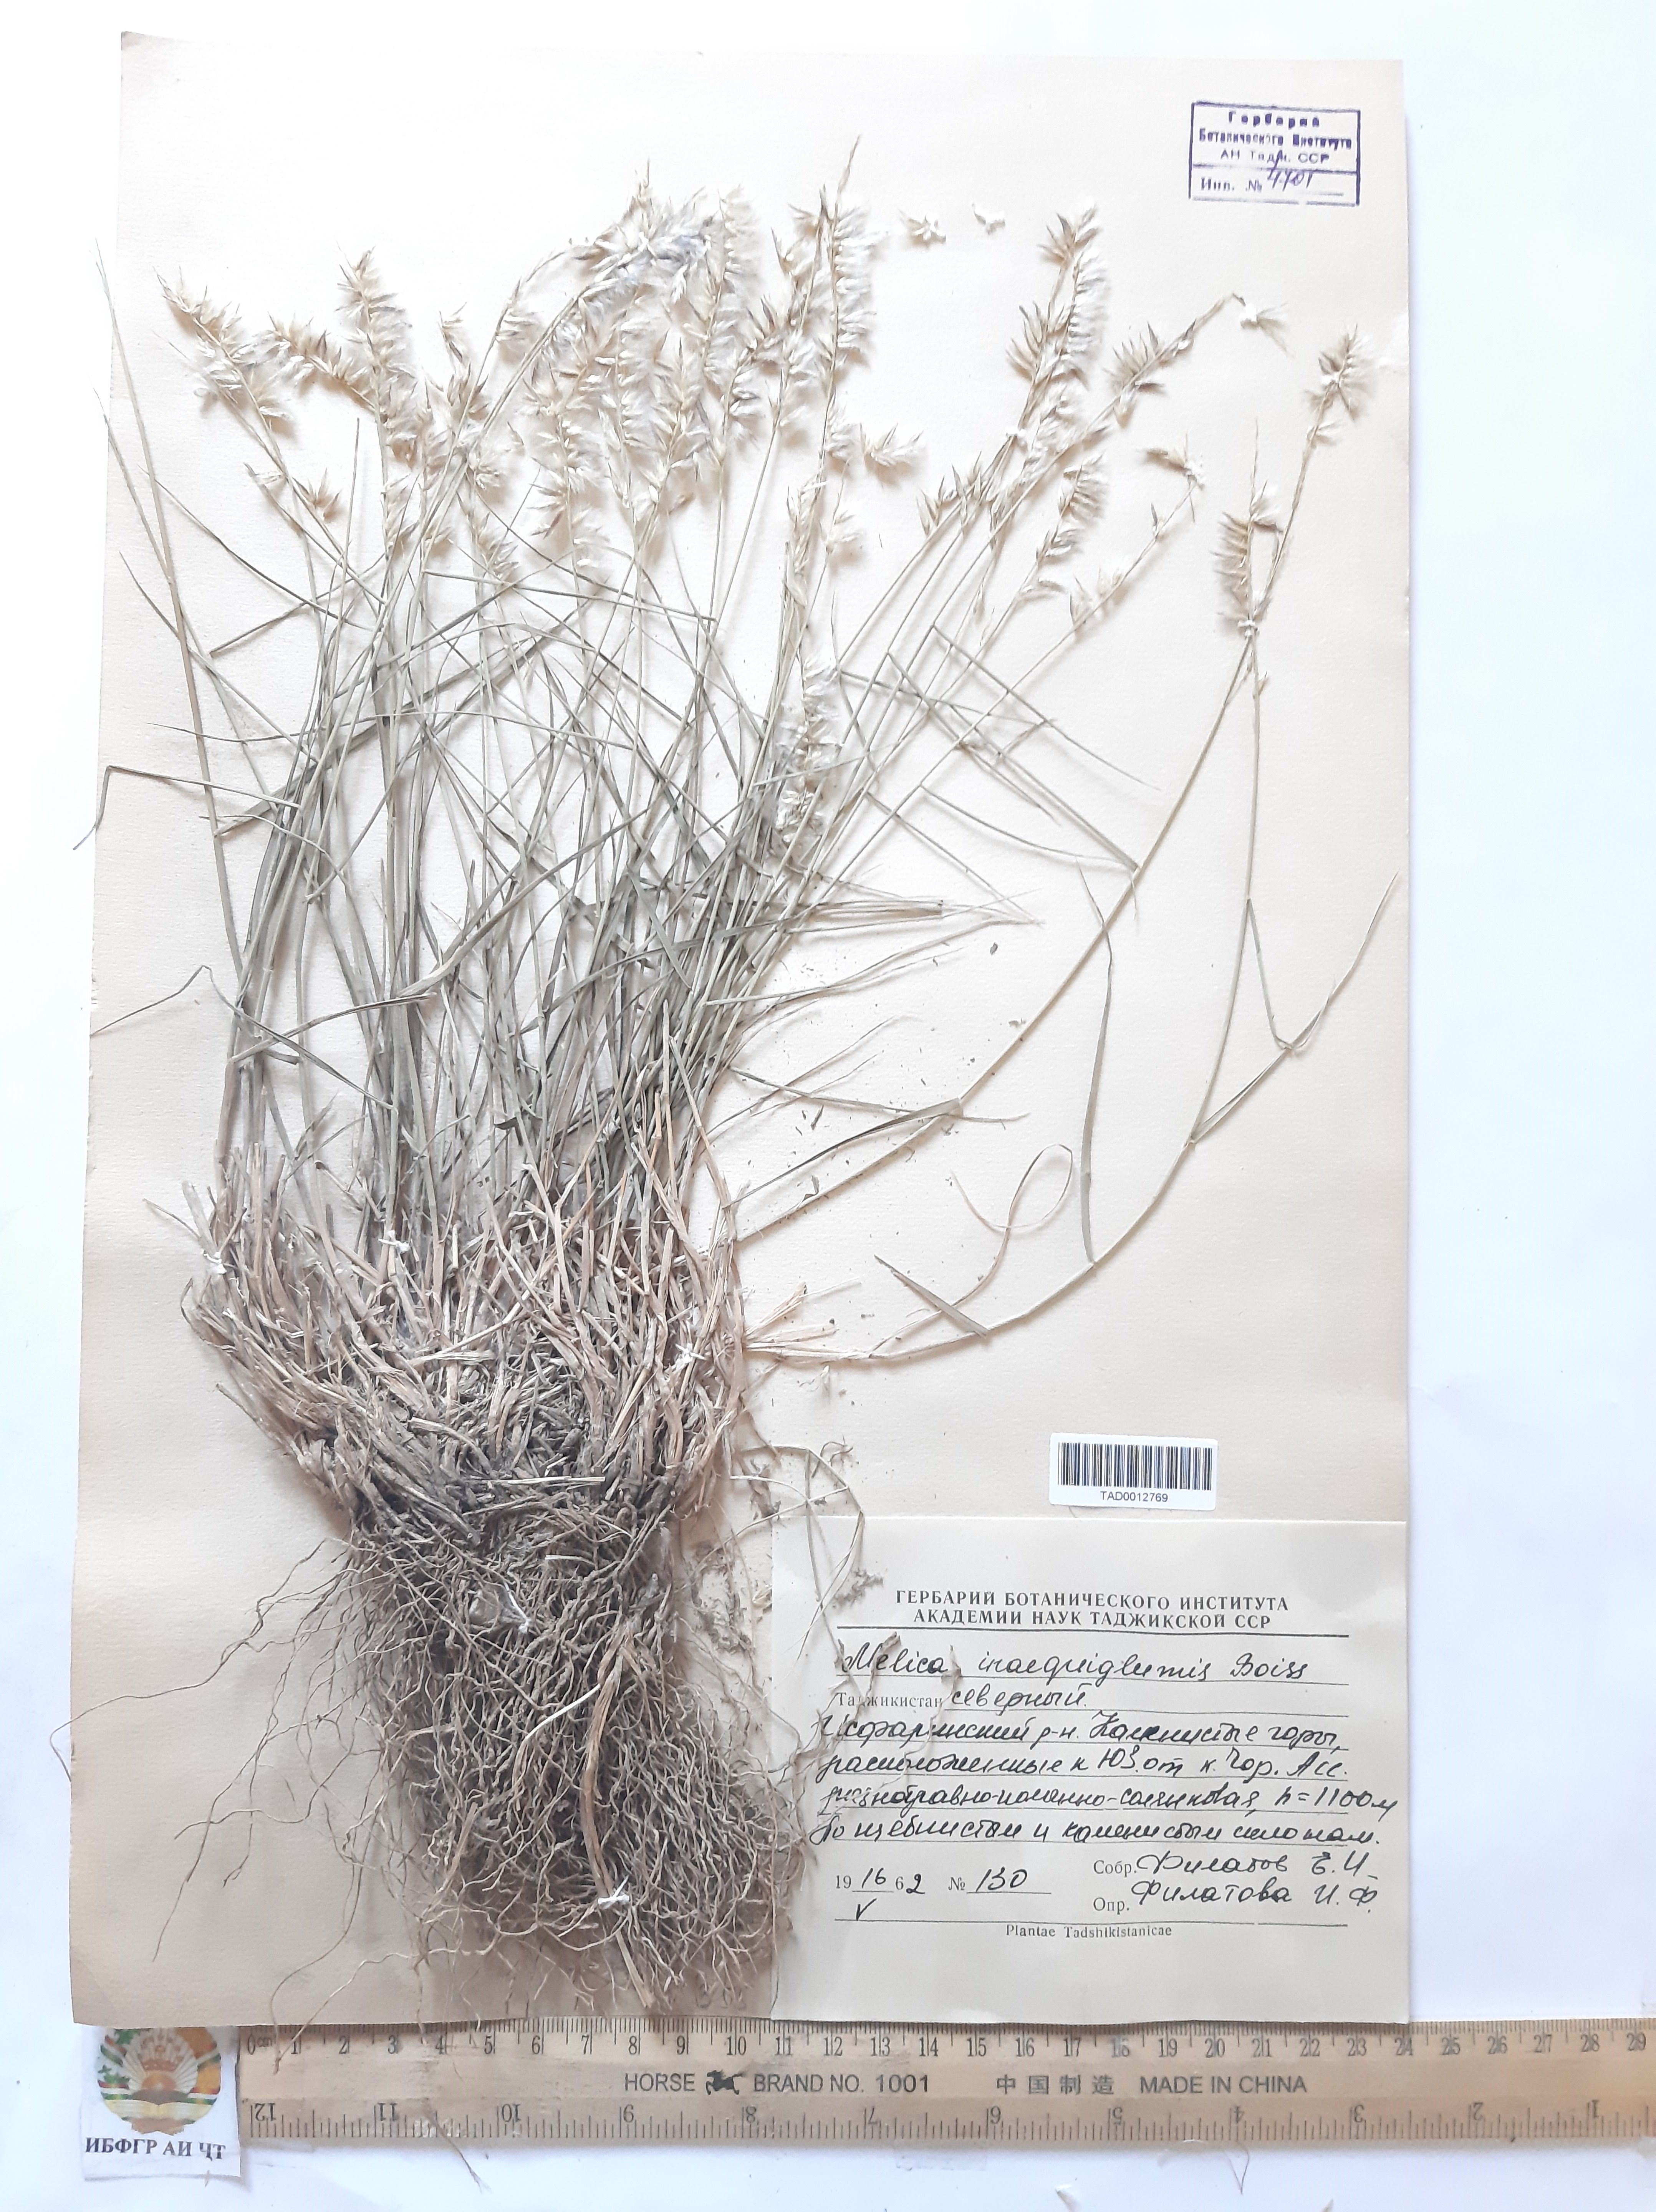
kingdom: Plantae
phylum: Tracheophyta
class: Liliopsida
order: Poales
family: Poaceae
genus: Melica
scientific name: Melica persica
